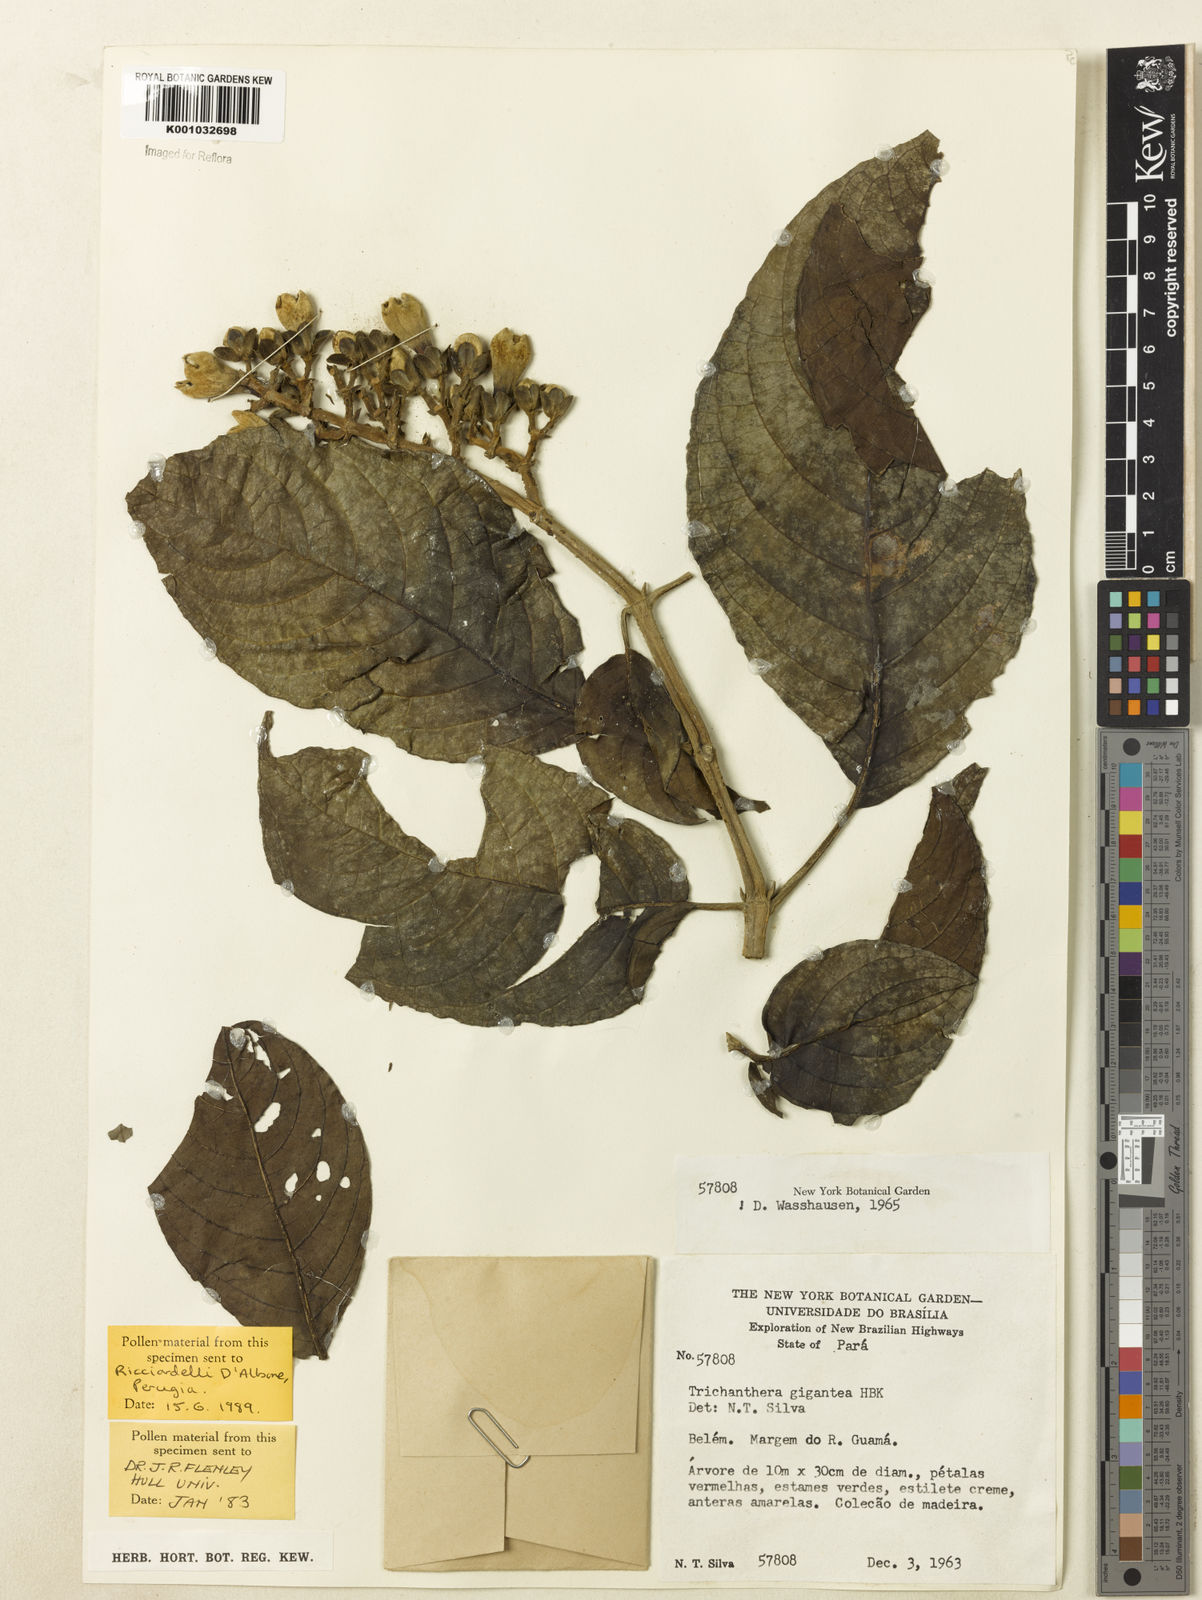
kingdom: Plantae
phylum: Tracheophyta
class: Magnoliopsida
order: Lamiales
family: Acanthaceae
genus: Trichanthera
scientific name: Trichanthera
